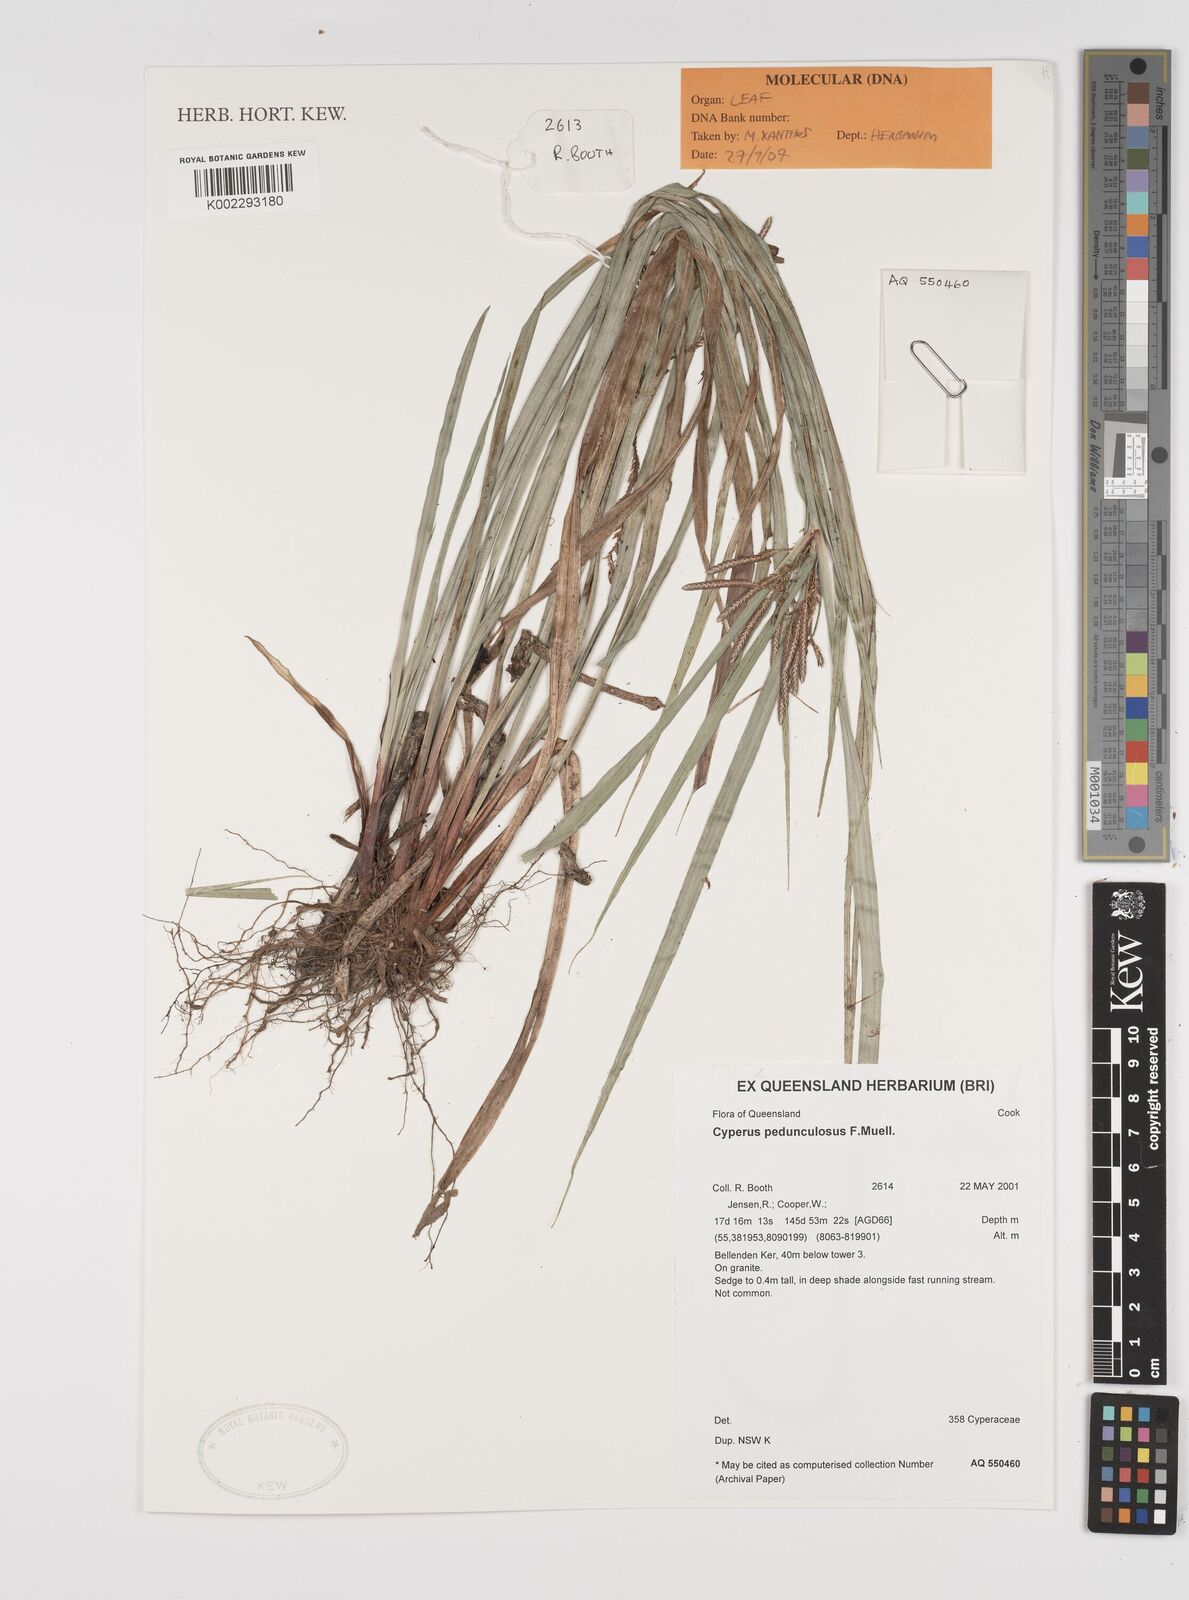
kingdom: Plantae
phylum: Tracheophyta
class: Liliopsida
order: Poales
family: Cyperaceae
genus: Cyperus
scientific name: Cyperus pedunculosus
